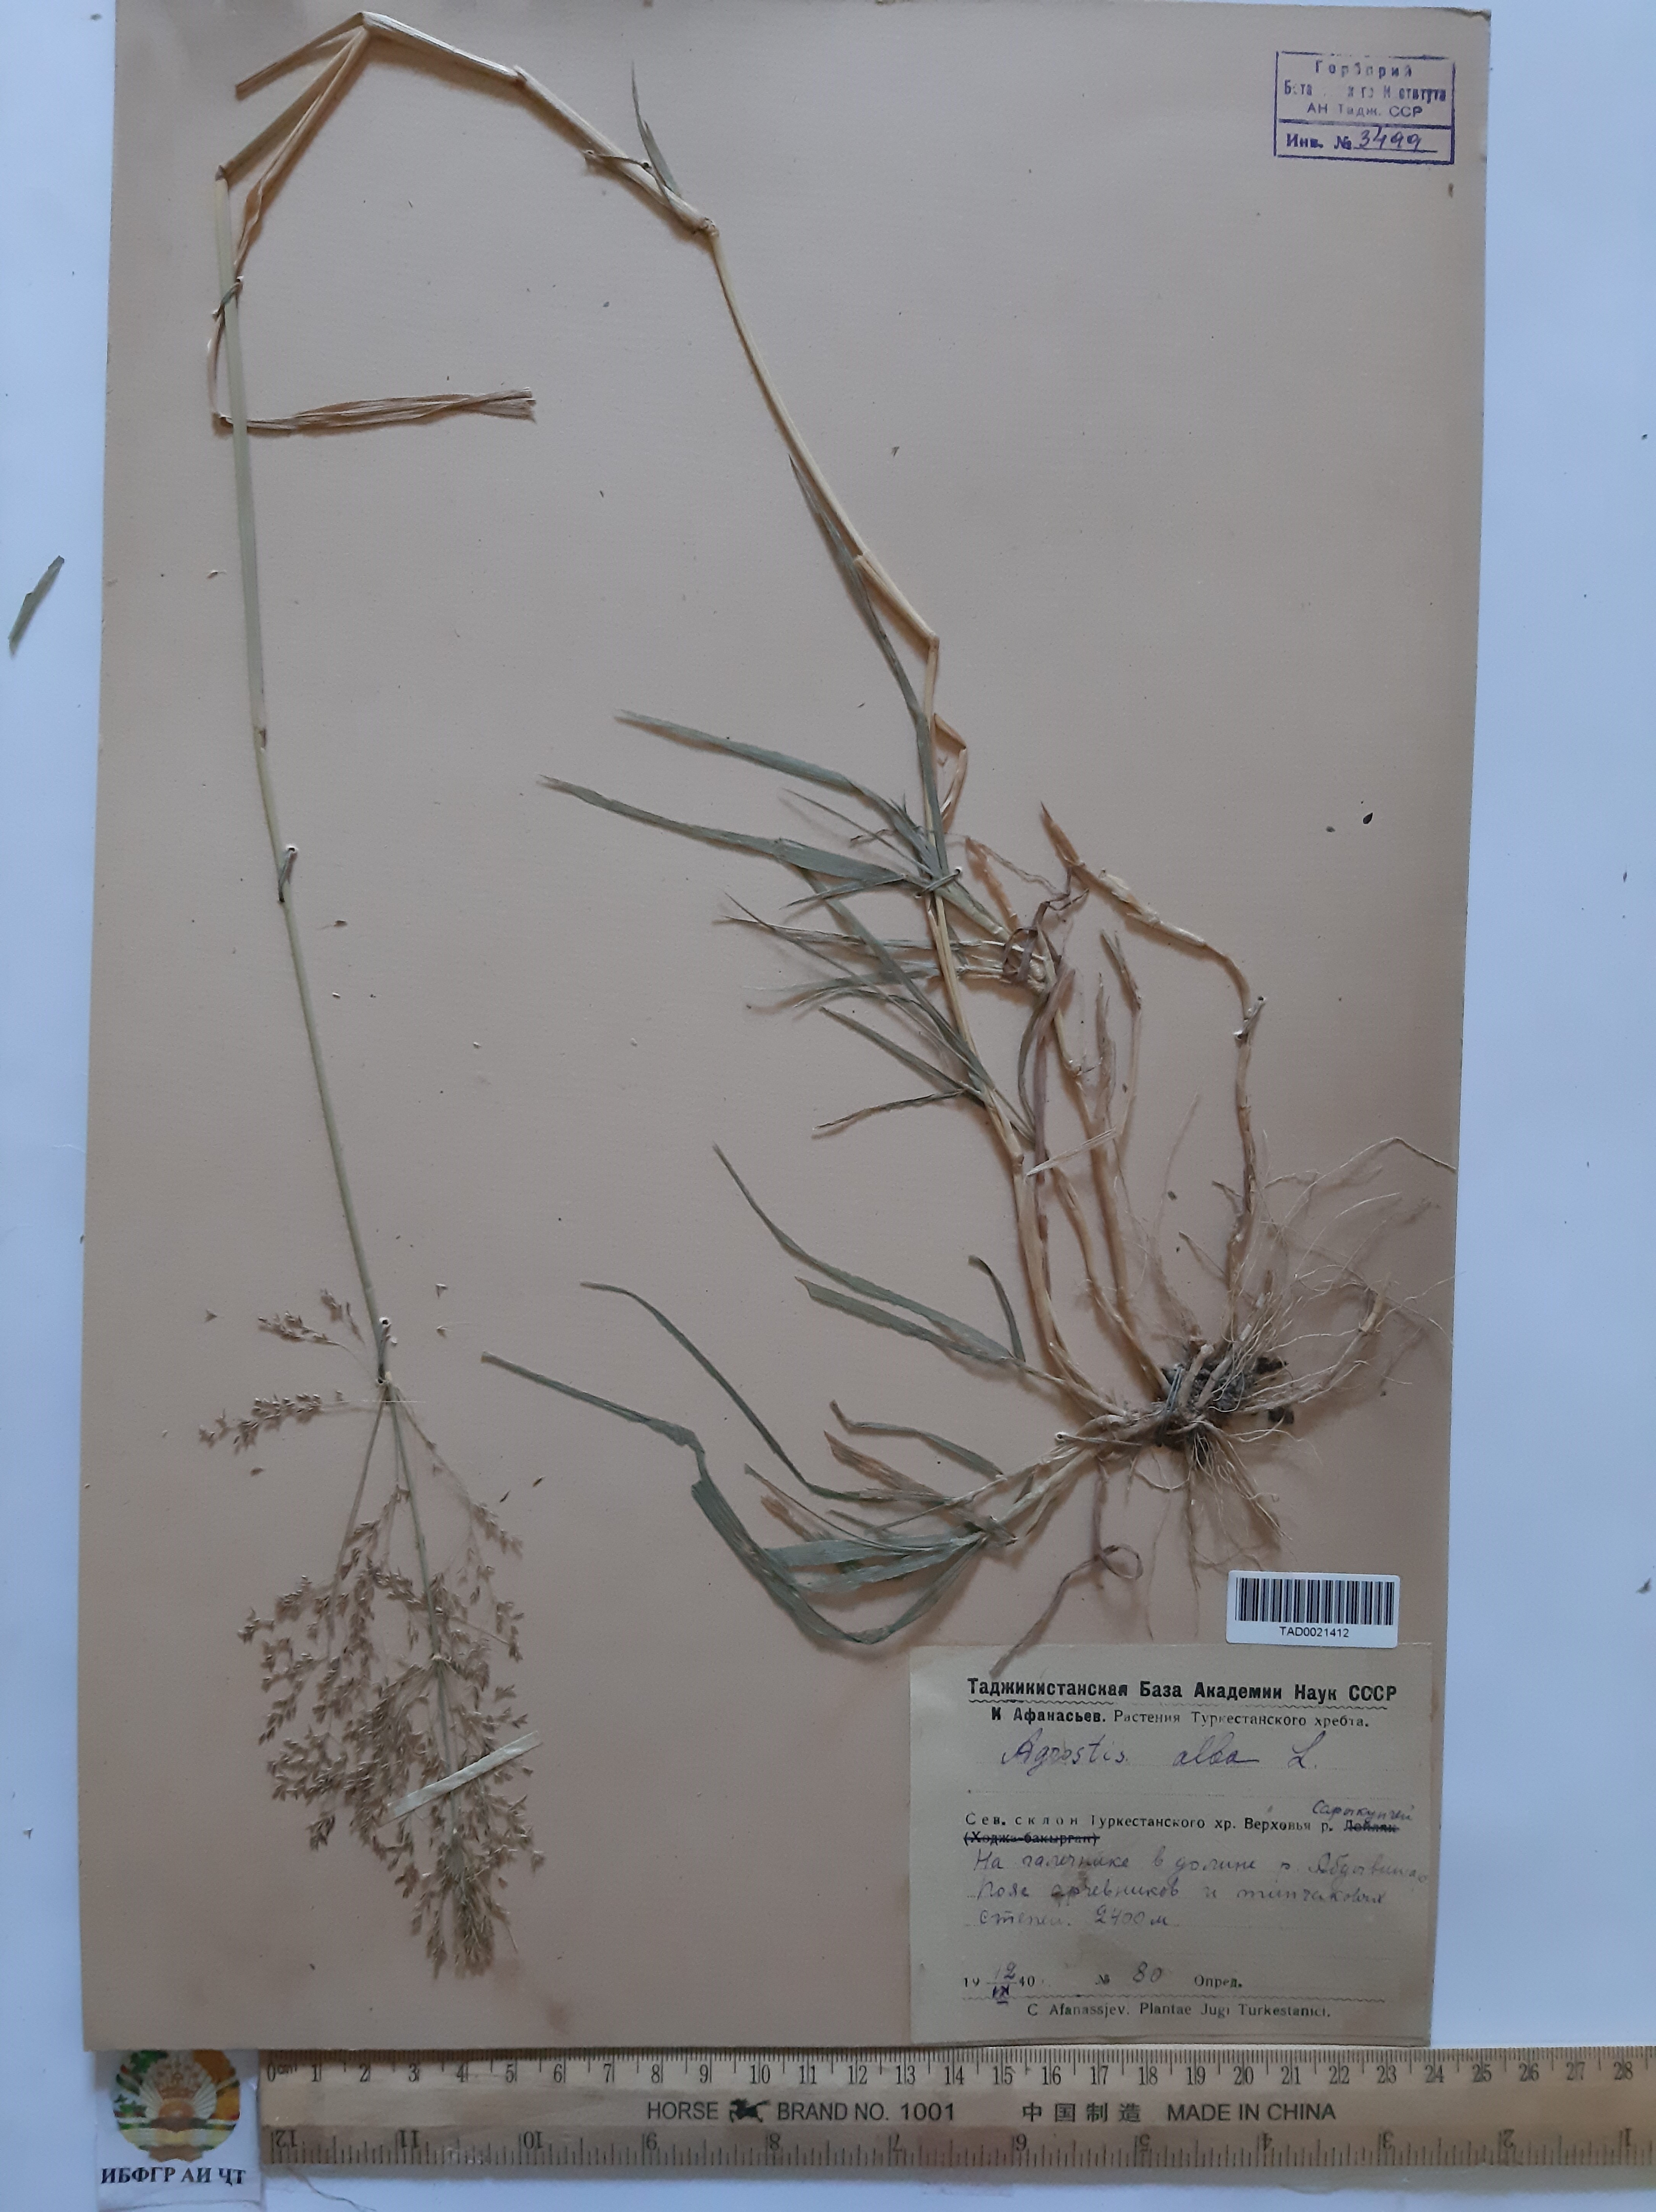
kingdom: Plantae
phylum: Tracheophyta
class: Liliopsida
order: Poales
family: Poaceae
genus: Poa
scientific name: Poa nemoralis
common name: Wood bluegrass
